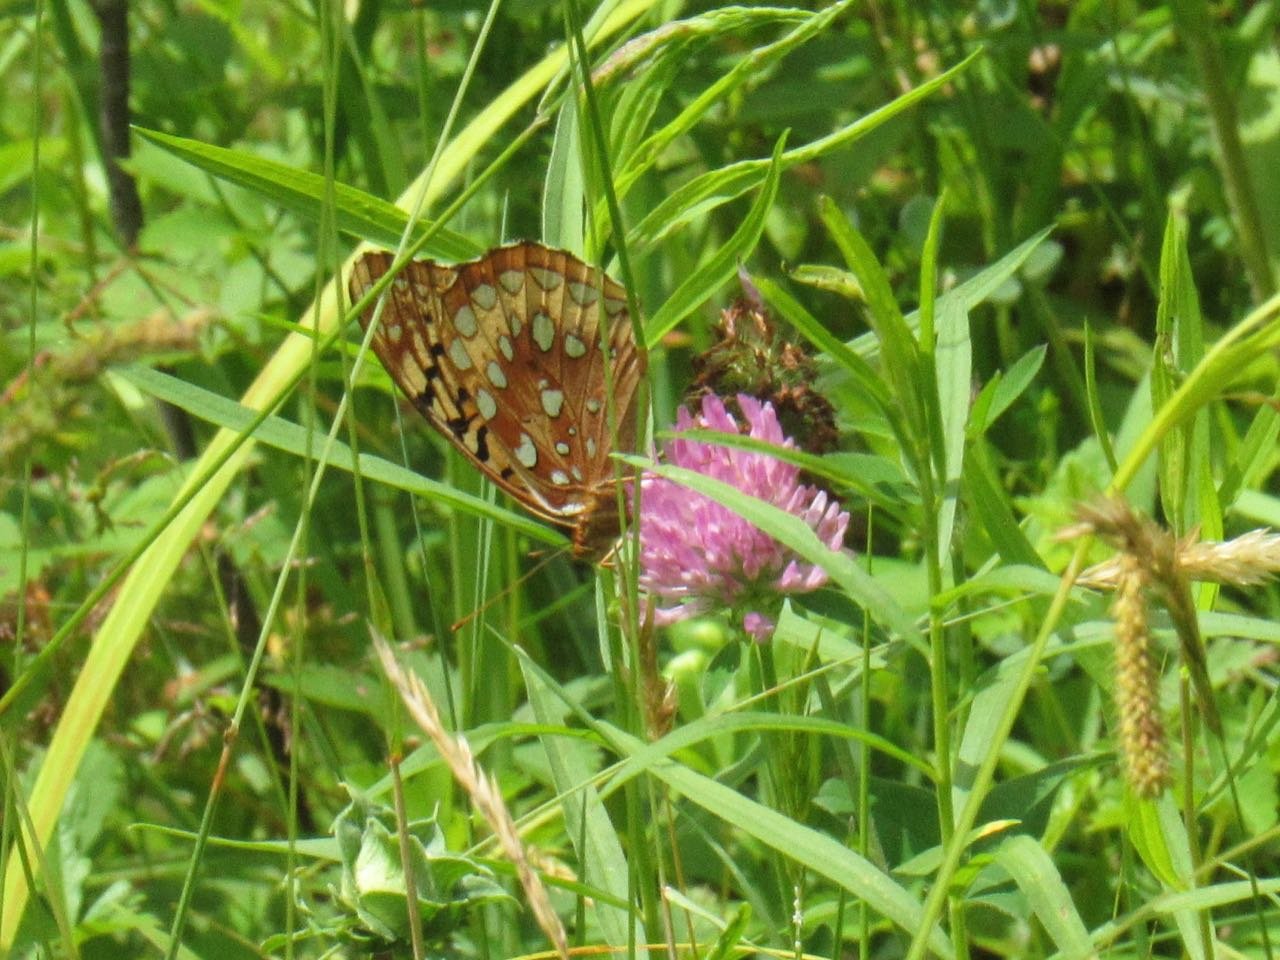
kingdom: Animalia
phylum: Arthropoda
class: Insecta
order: Lepidoptera
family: Nymphalidae
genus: Speyeria
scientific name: Speyeria cybele
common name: Great Spangled Fritillary
